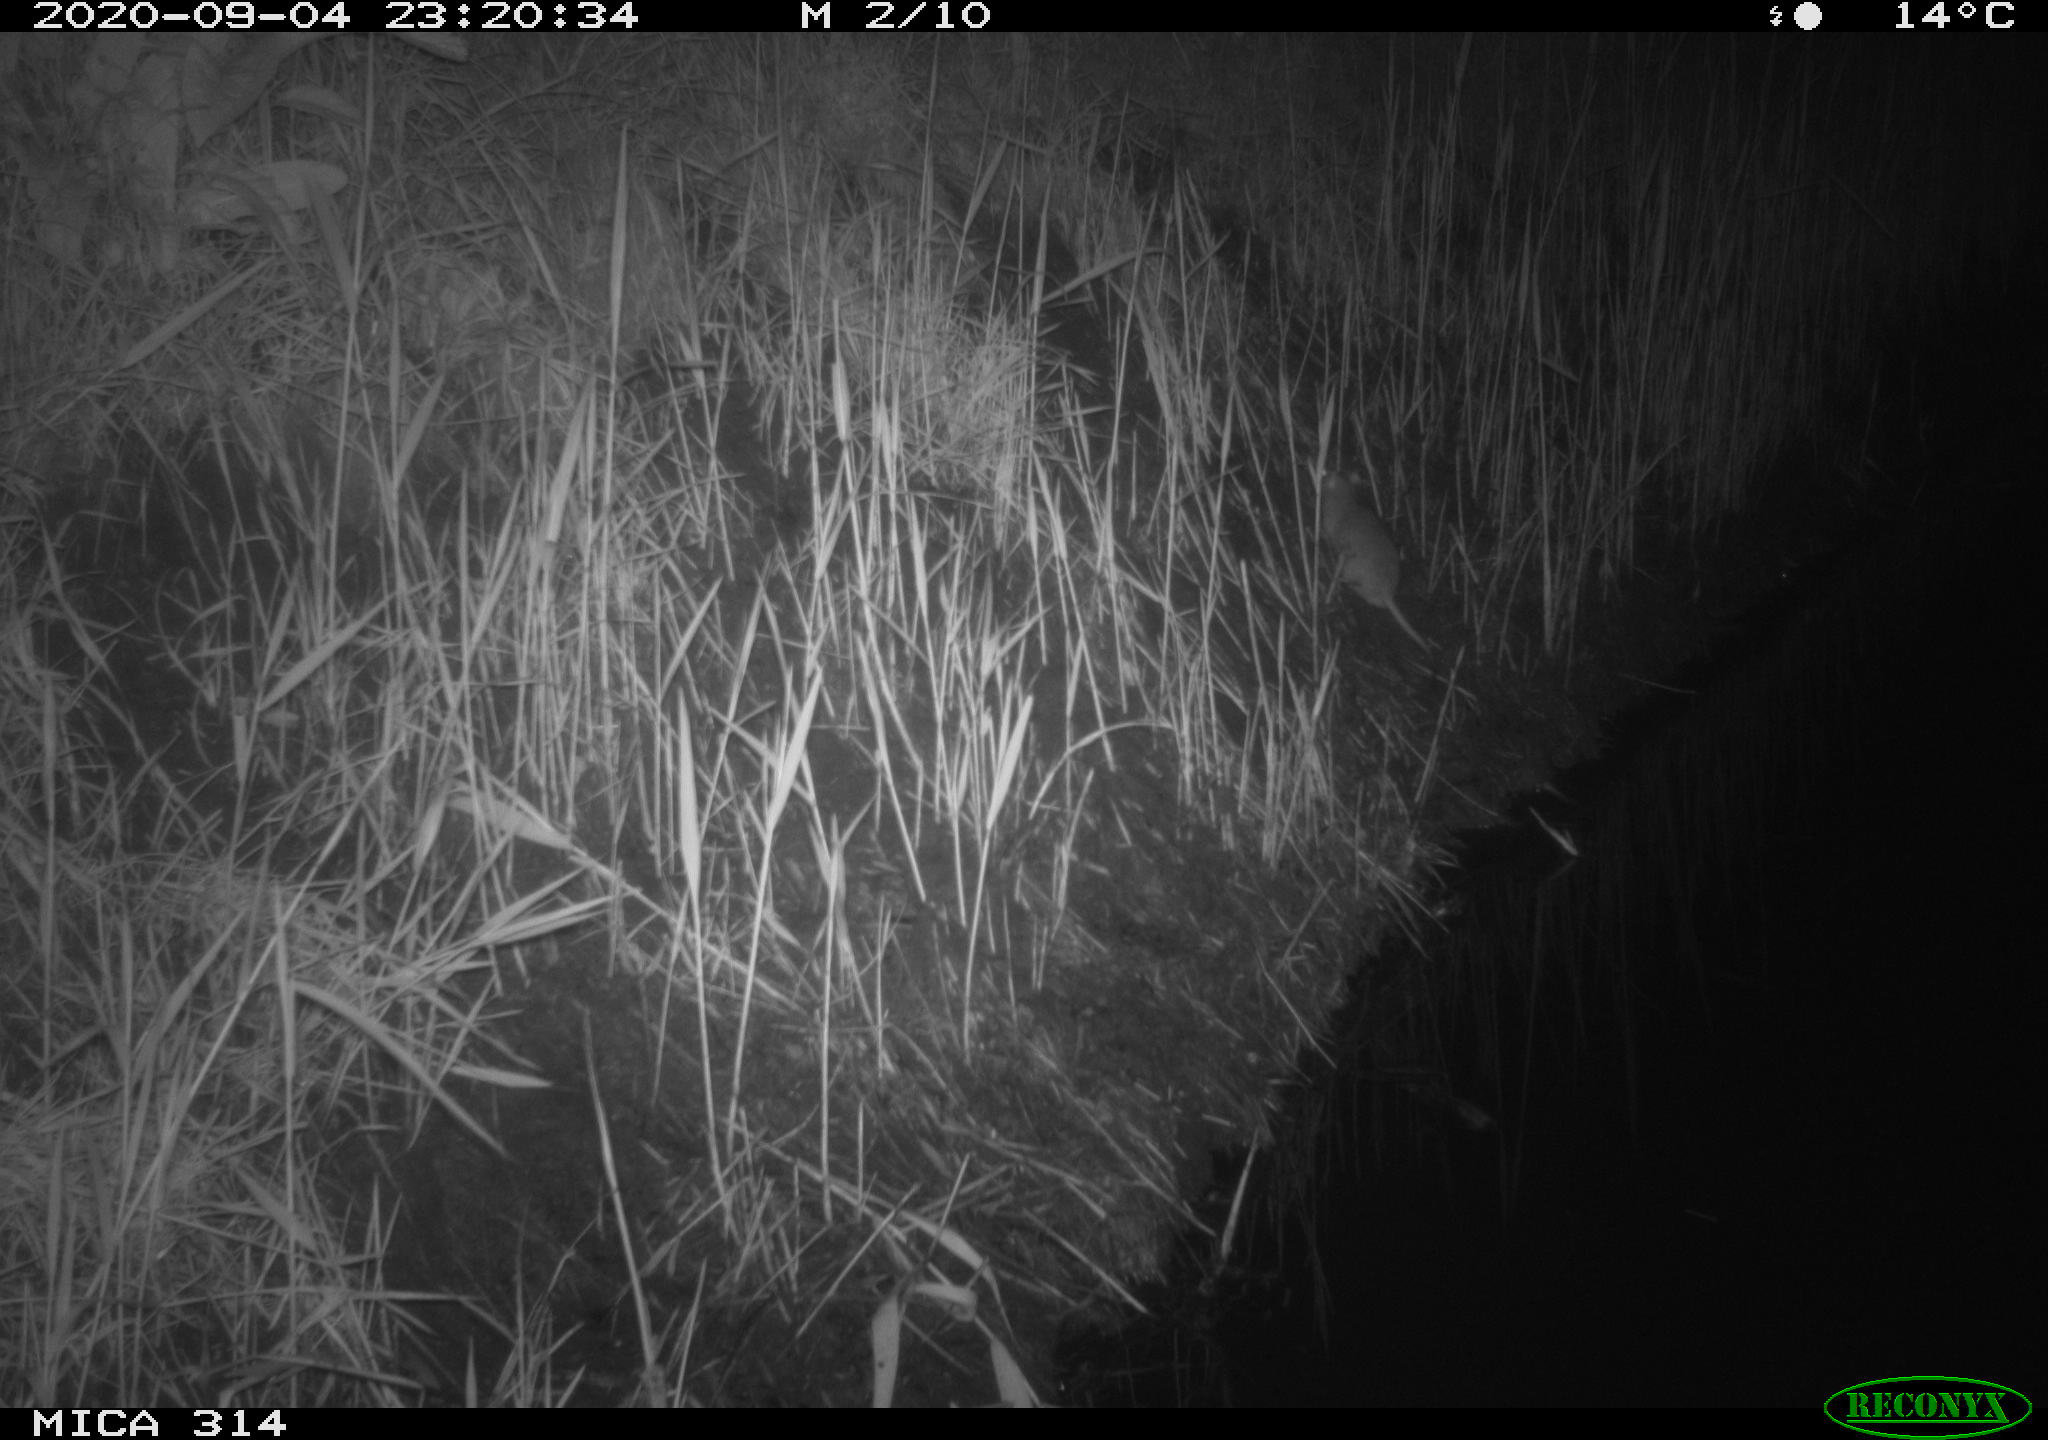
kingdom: Animalia
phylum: Chordata
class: Mammalia
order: Rodentia
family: Muridae
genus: Rattus
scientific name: Rattus norvegicus
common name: Brown rat
